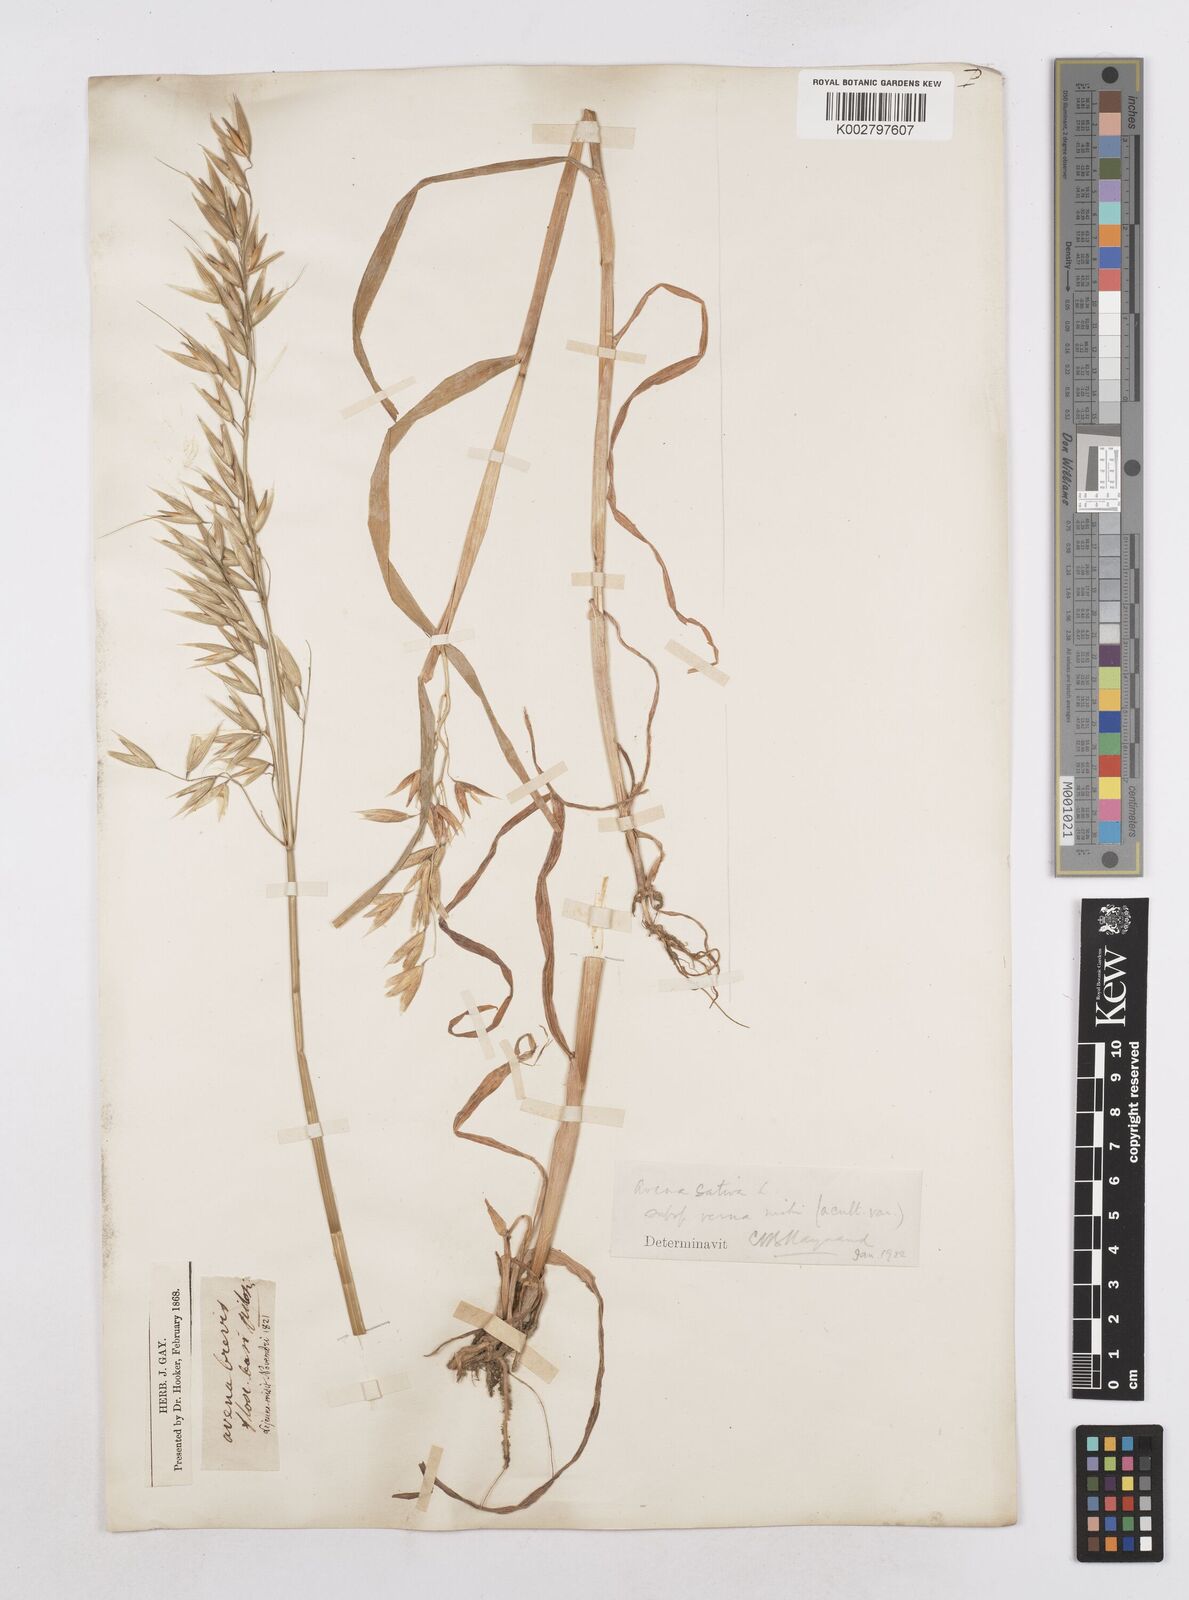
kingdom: Plantae
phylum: Tracheophyta
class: Liliopsida
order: Poales
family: Poaceae
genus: Avena
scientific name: Avena sativa
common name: Oat
